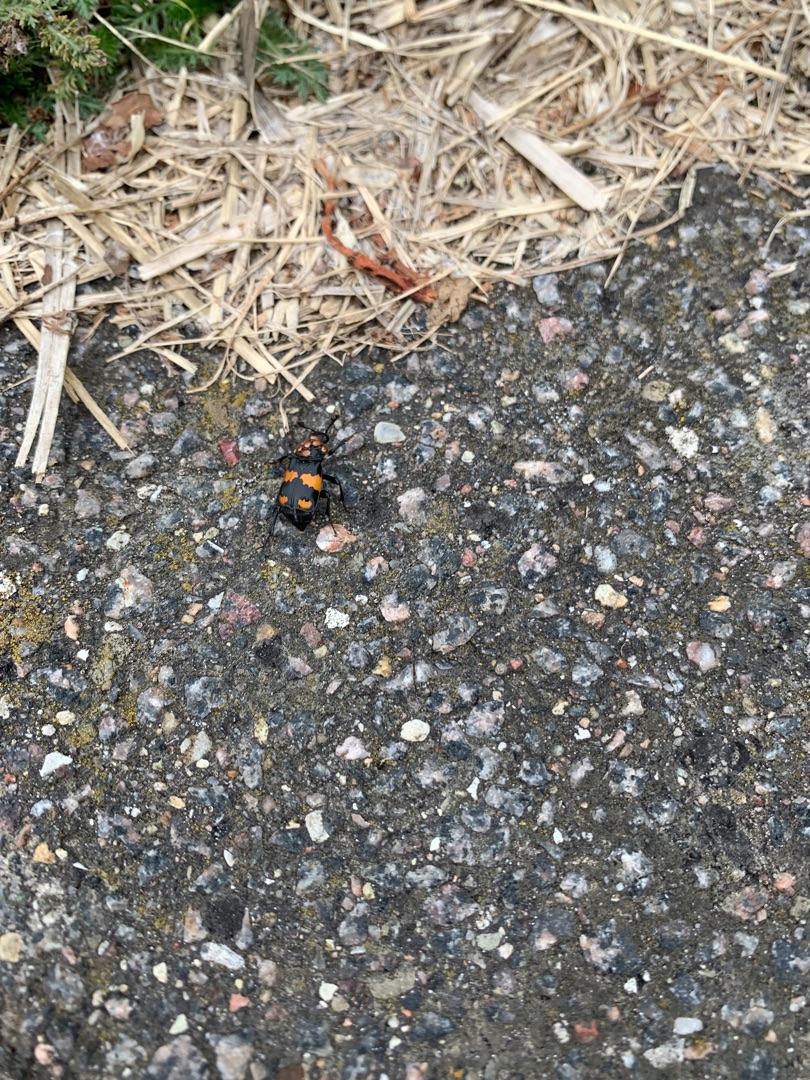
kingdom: Animalia
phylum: Arthropoda
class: Insecta
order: Coleoptera
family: Staphylinidae
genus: Nicrophorus
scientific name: Nicrophorus vespilloides
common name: Sortkøllet ådselgraver
